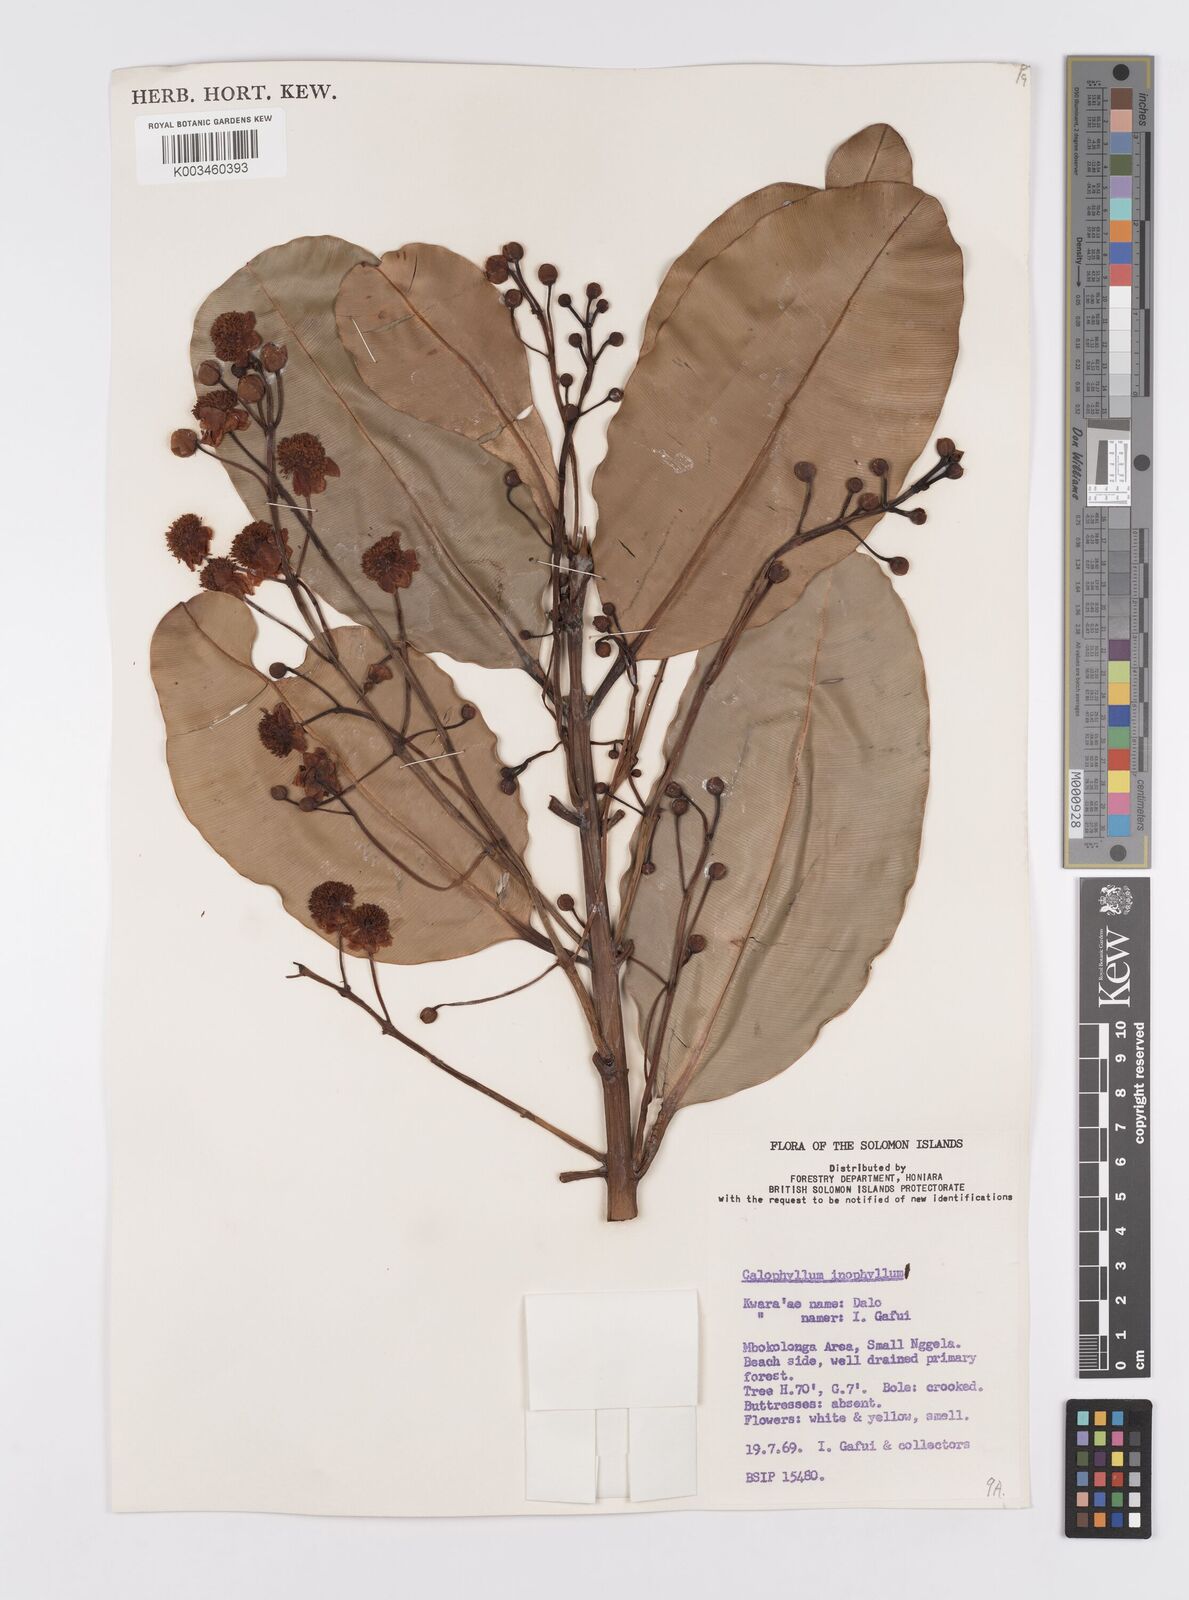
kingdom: Plantae
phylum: Tracheophyta
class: Magnoliopsida
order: Malpighiales
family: Calophyllaceae
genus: Calophyllum
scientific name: Calophyllum inophyllum
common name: Alexandrian laurel
